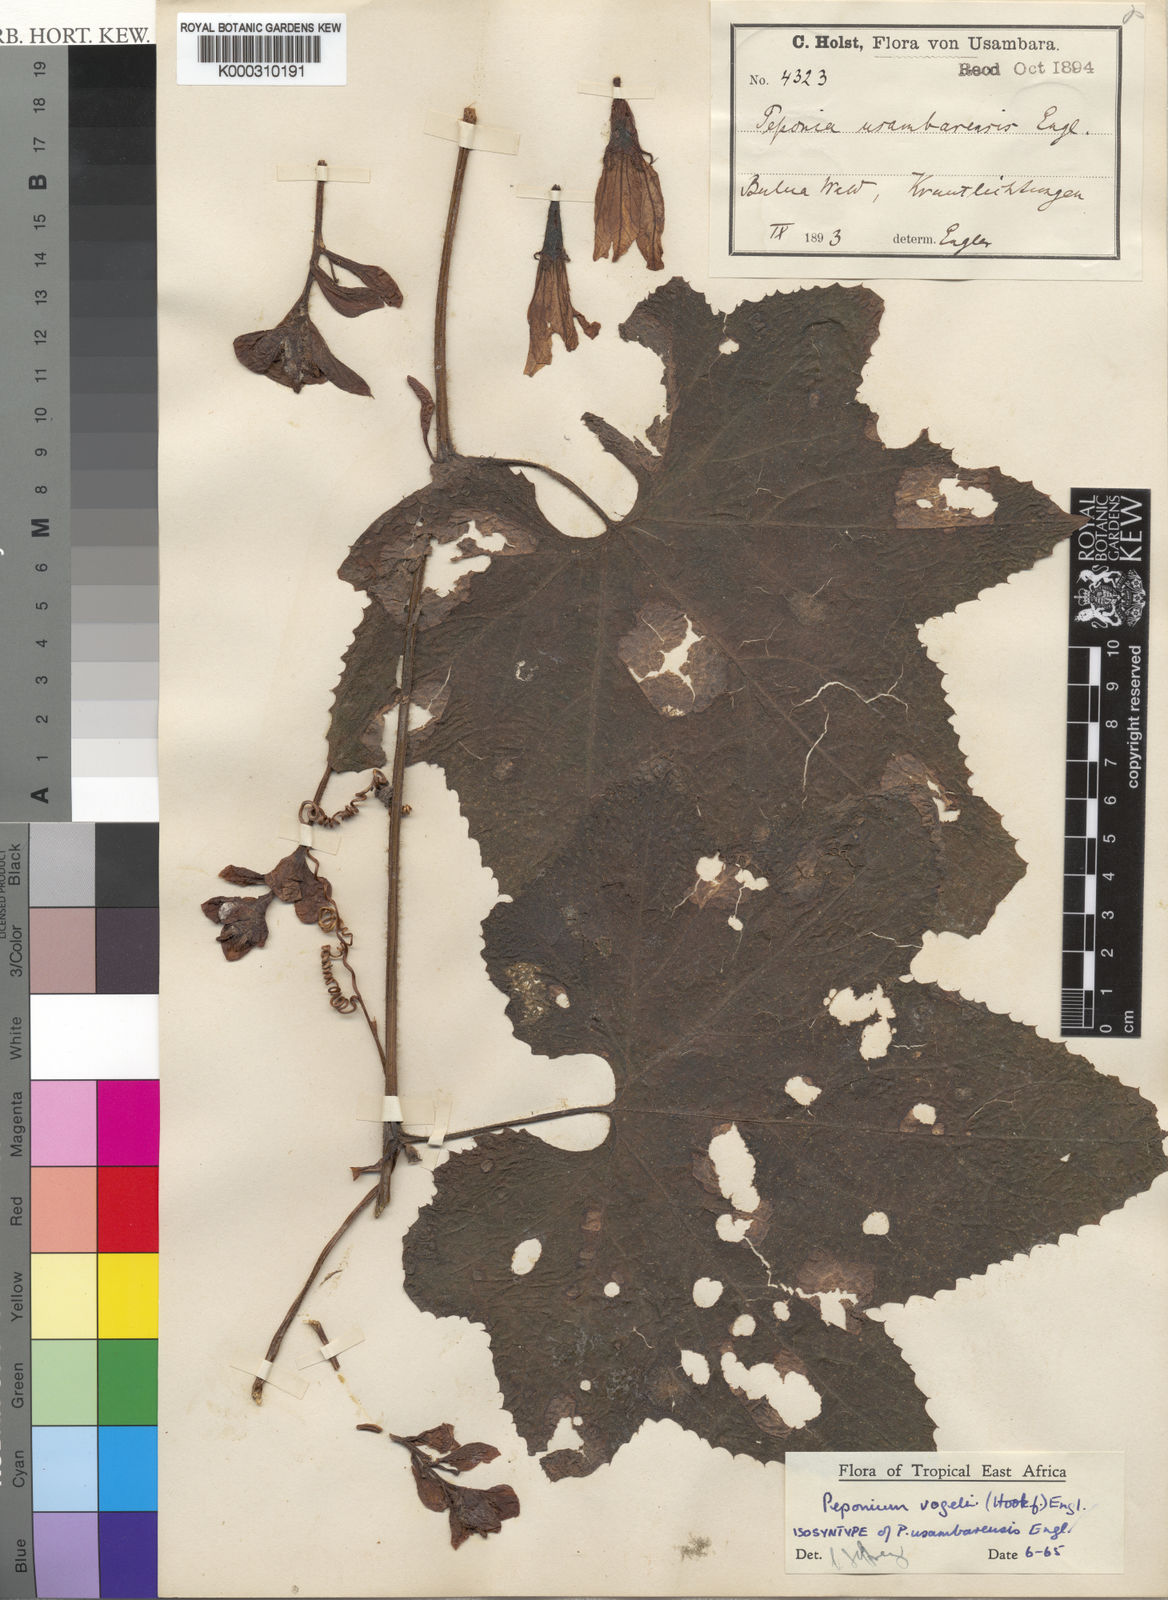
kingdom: Plantae
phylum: Tracheophyta
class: Magnoliopsida
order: Cucurbitales
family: Cucurbitaceae
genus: Peponium
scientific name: Peponium vogelii
